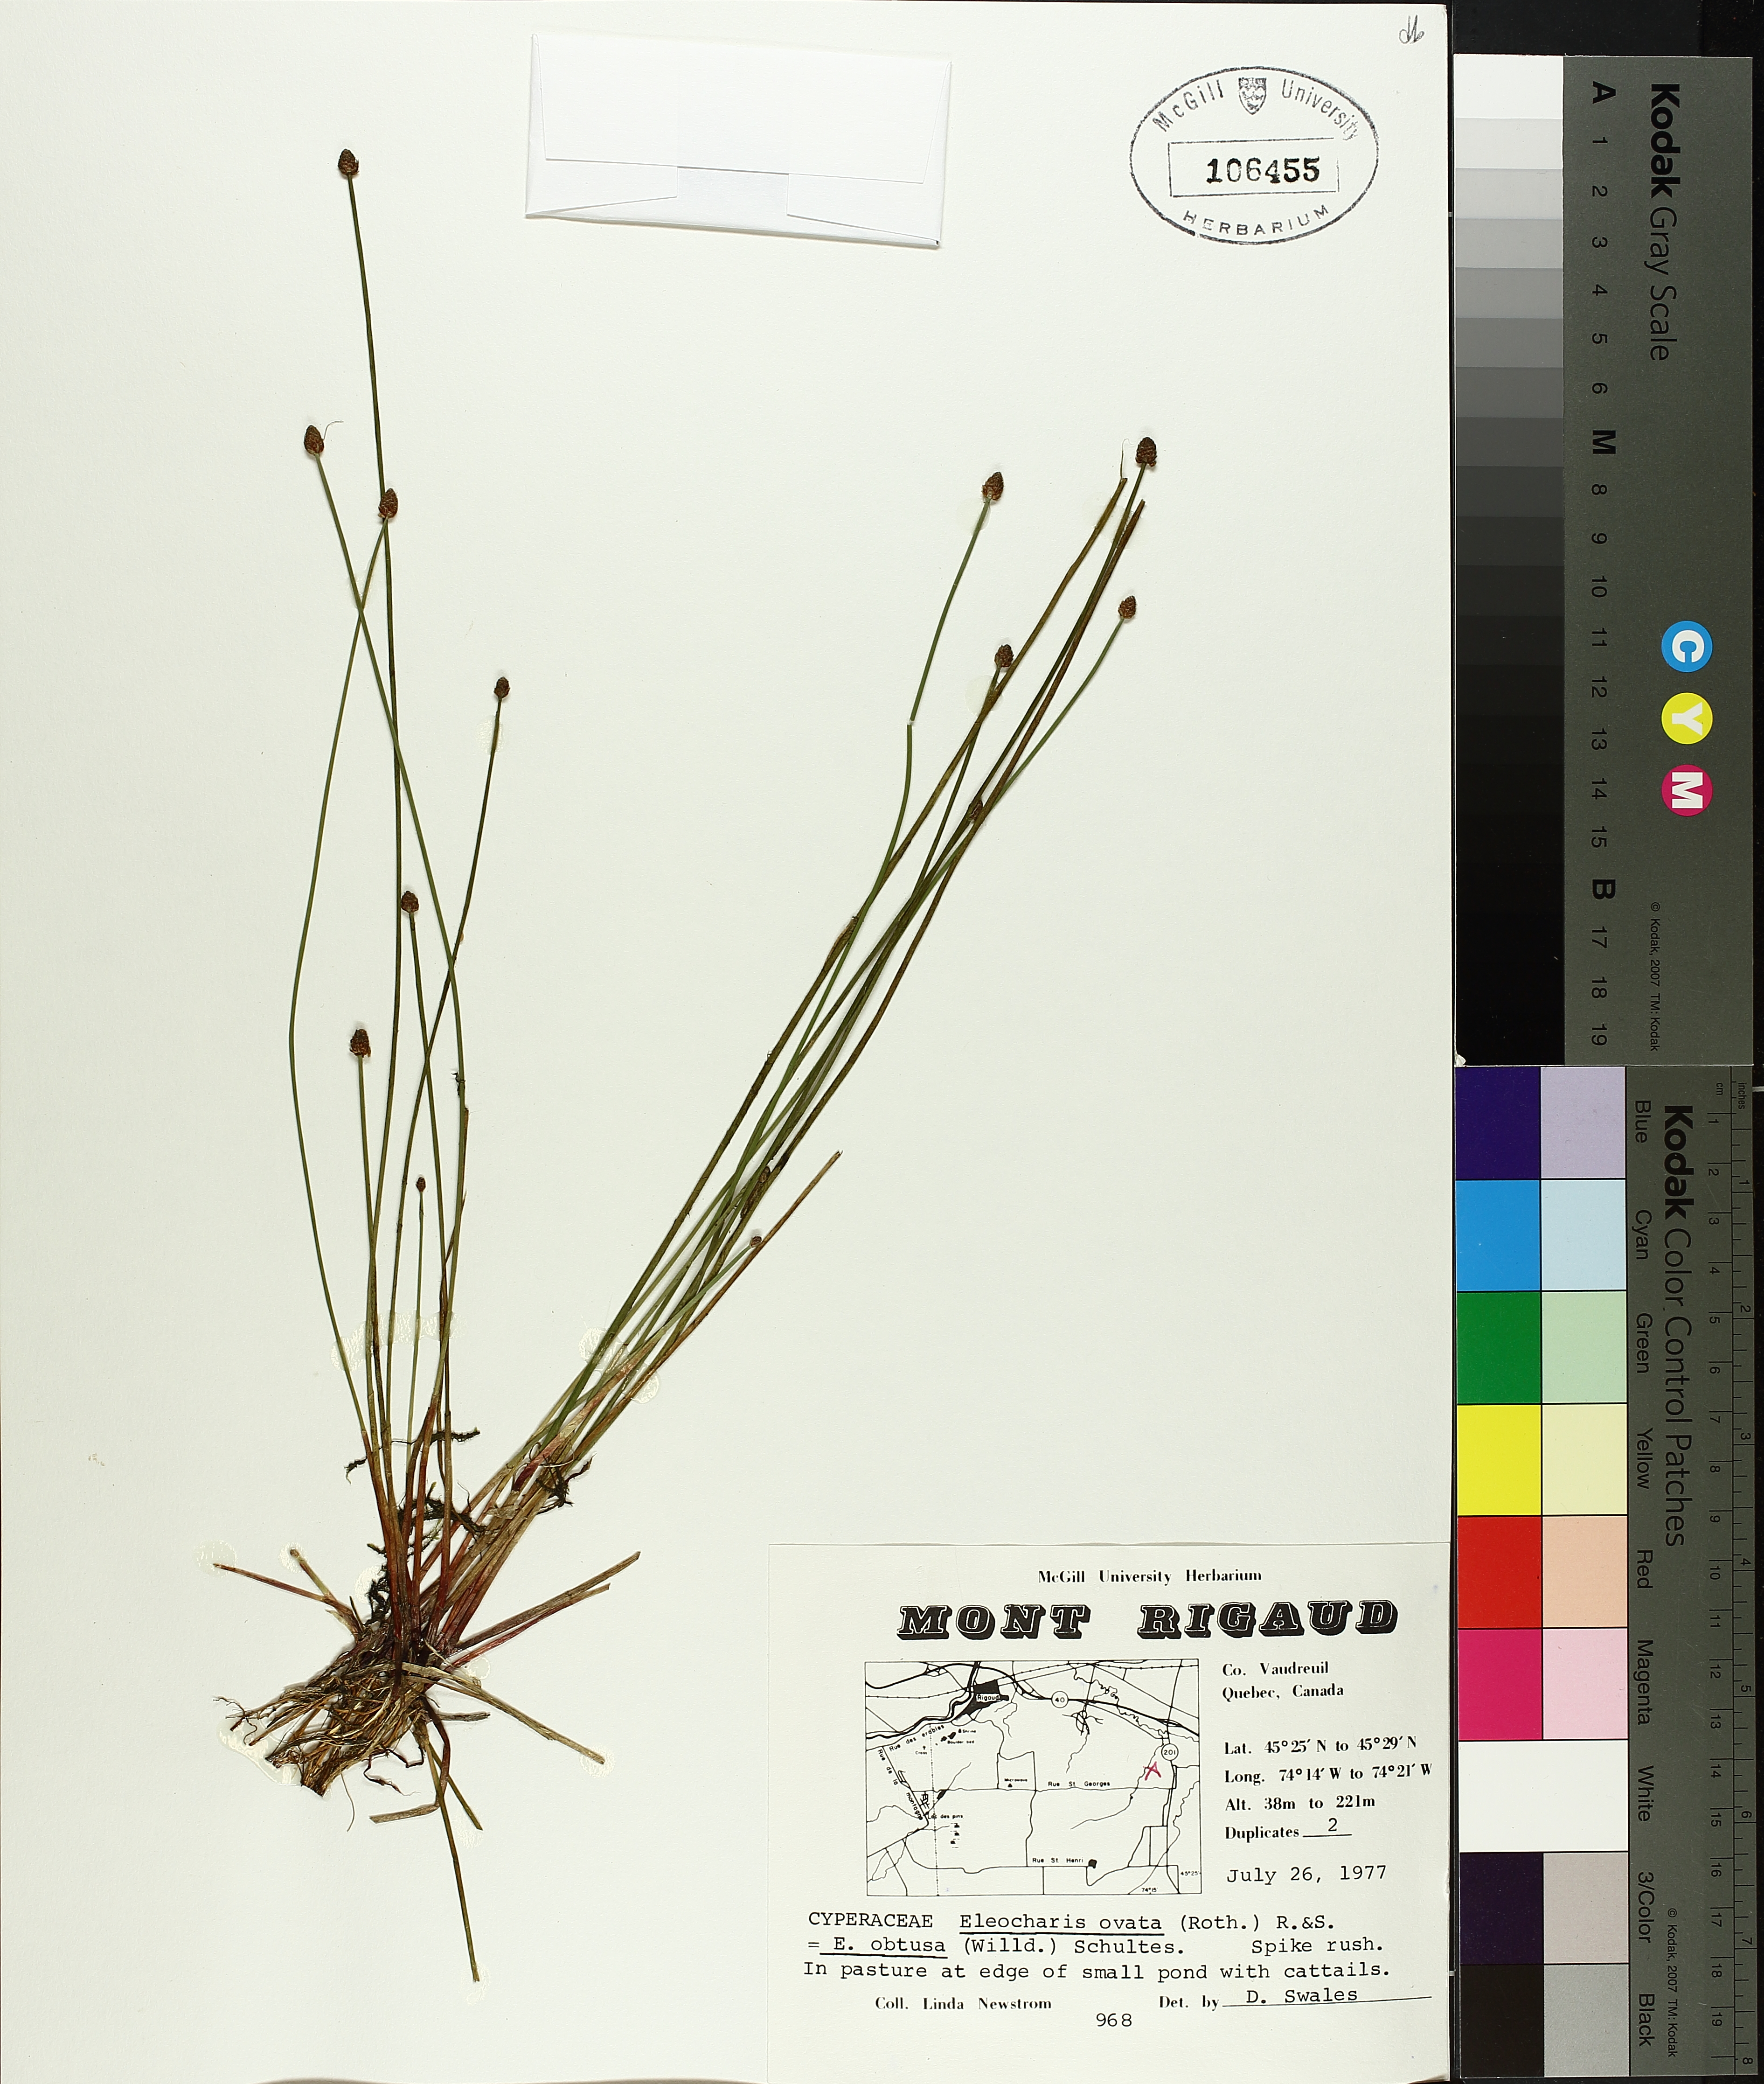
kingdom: Plantae
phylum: Tracheophyta
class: Liliopsida
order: Poales
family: Cyperaceae
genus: Eleocharis
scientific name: Eleocharis obtusa
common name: Blunt spikerush
